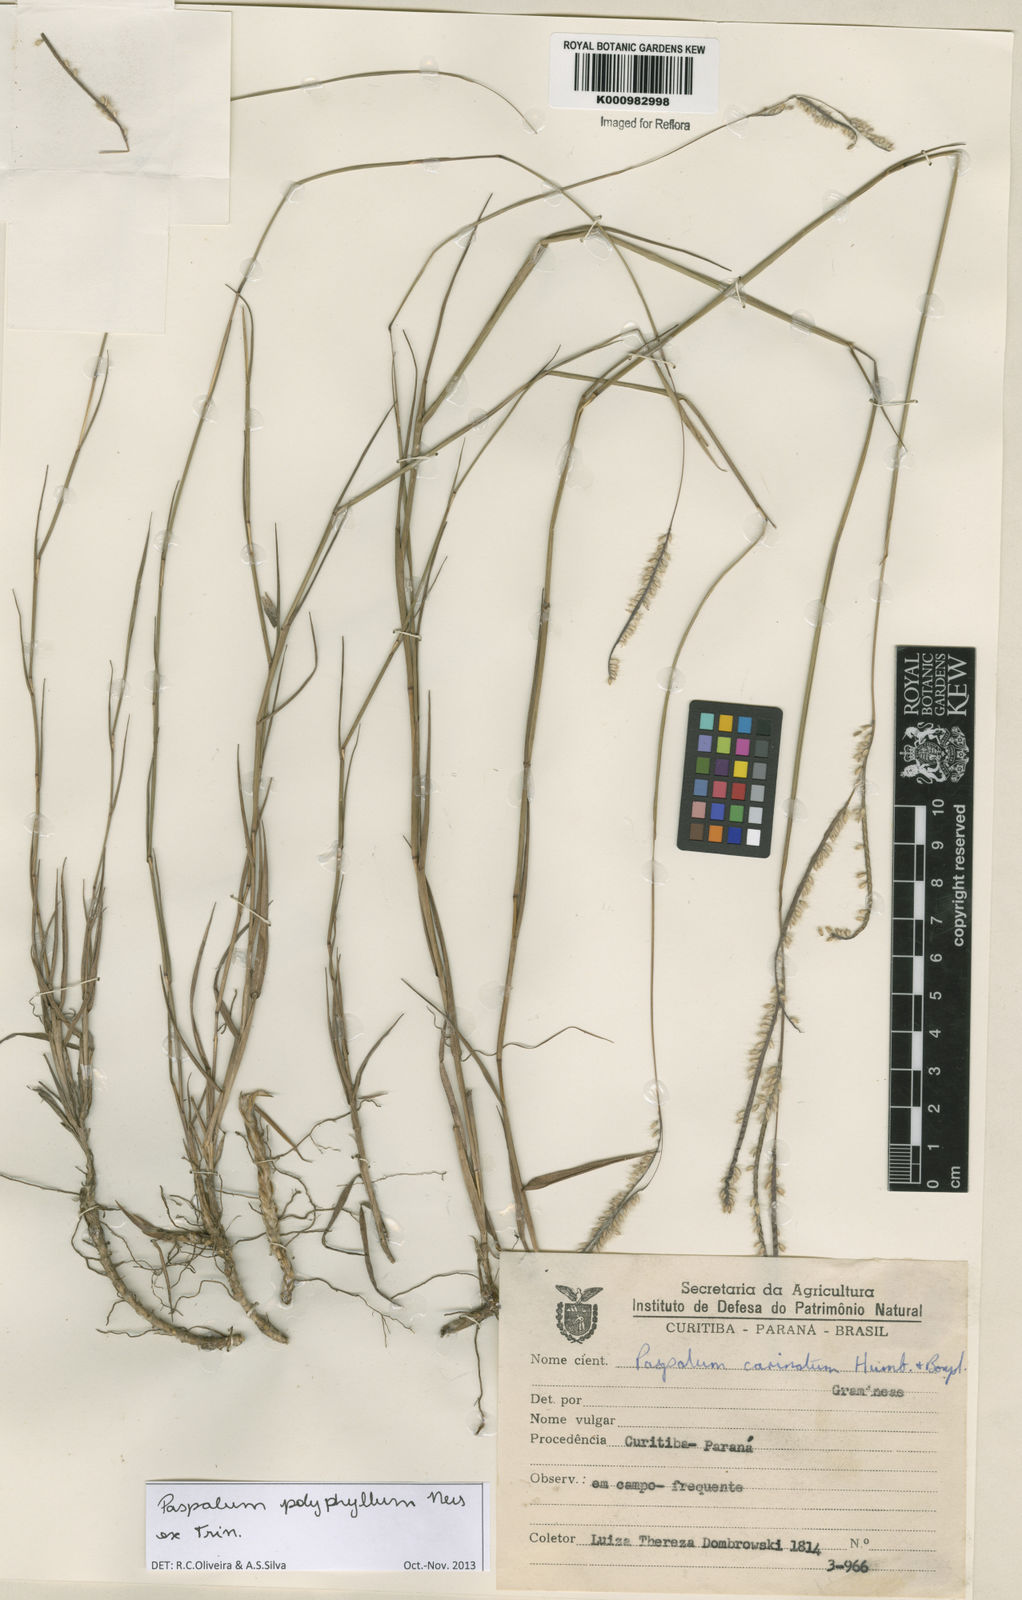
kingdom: Plantae
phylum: Tracheophyta
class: Liliopsida
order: Poales
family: Poaceae
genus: Paspalum
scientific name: Paspalum
